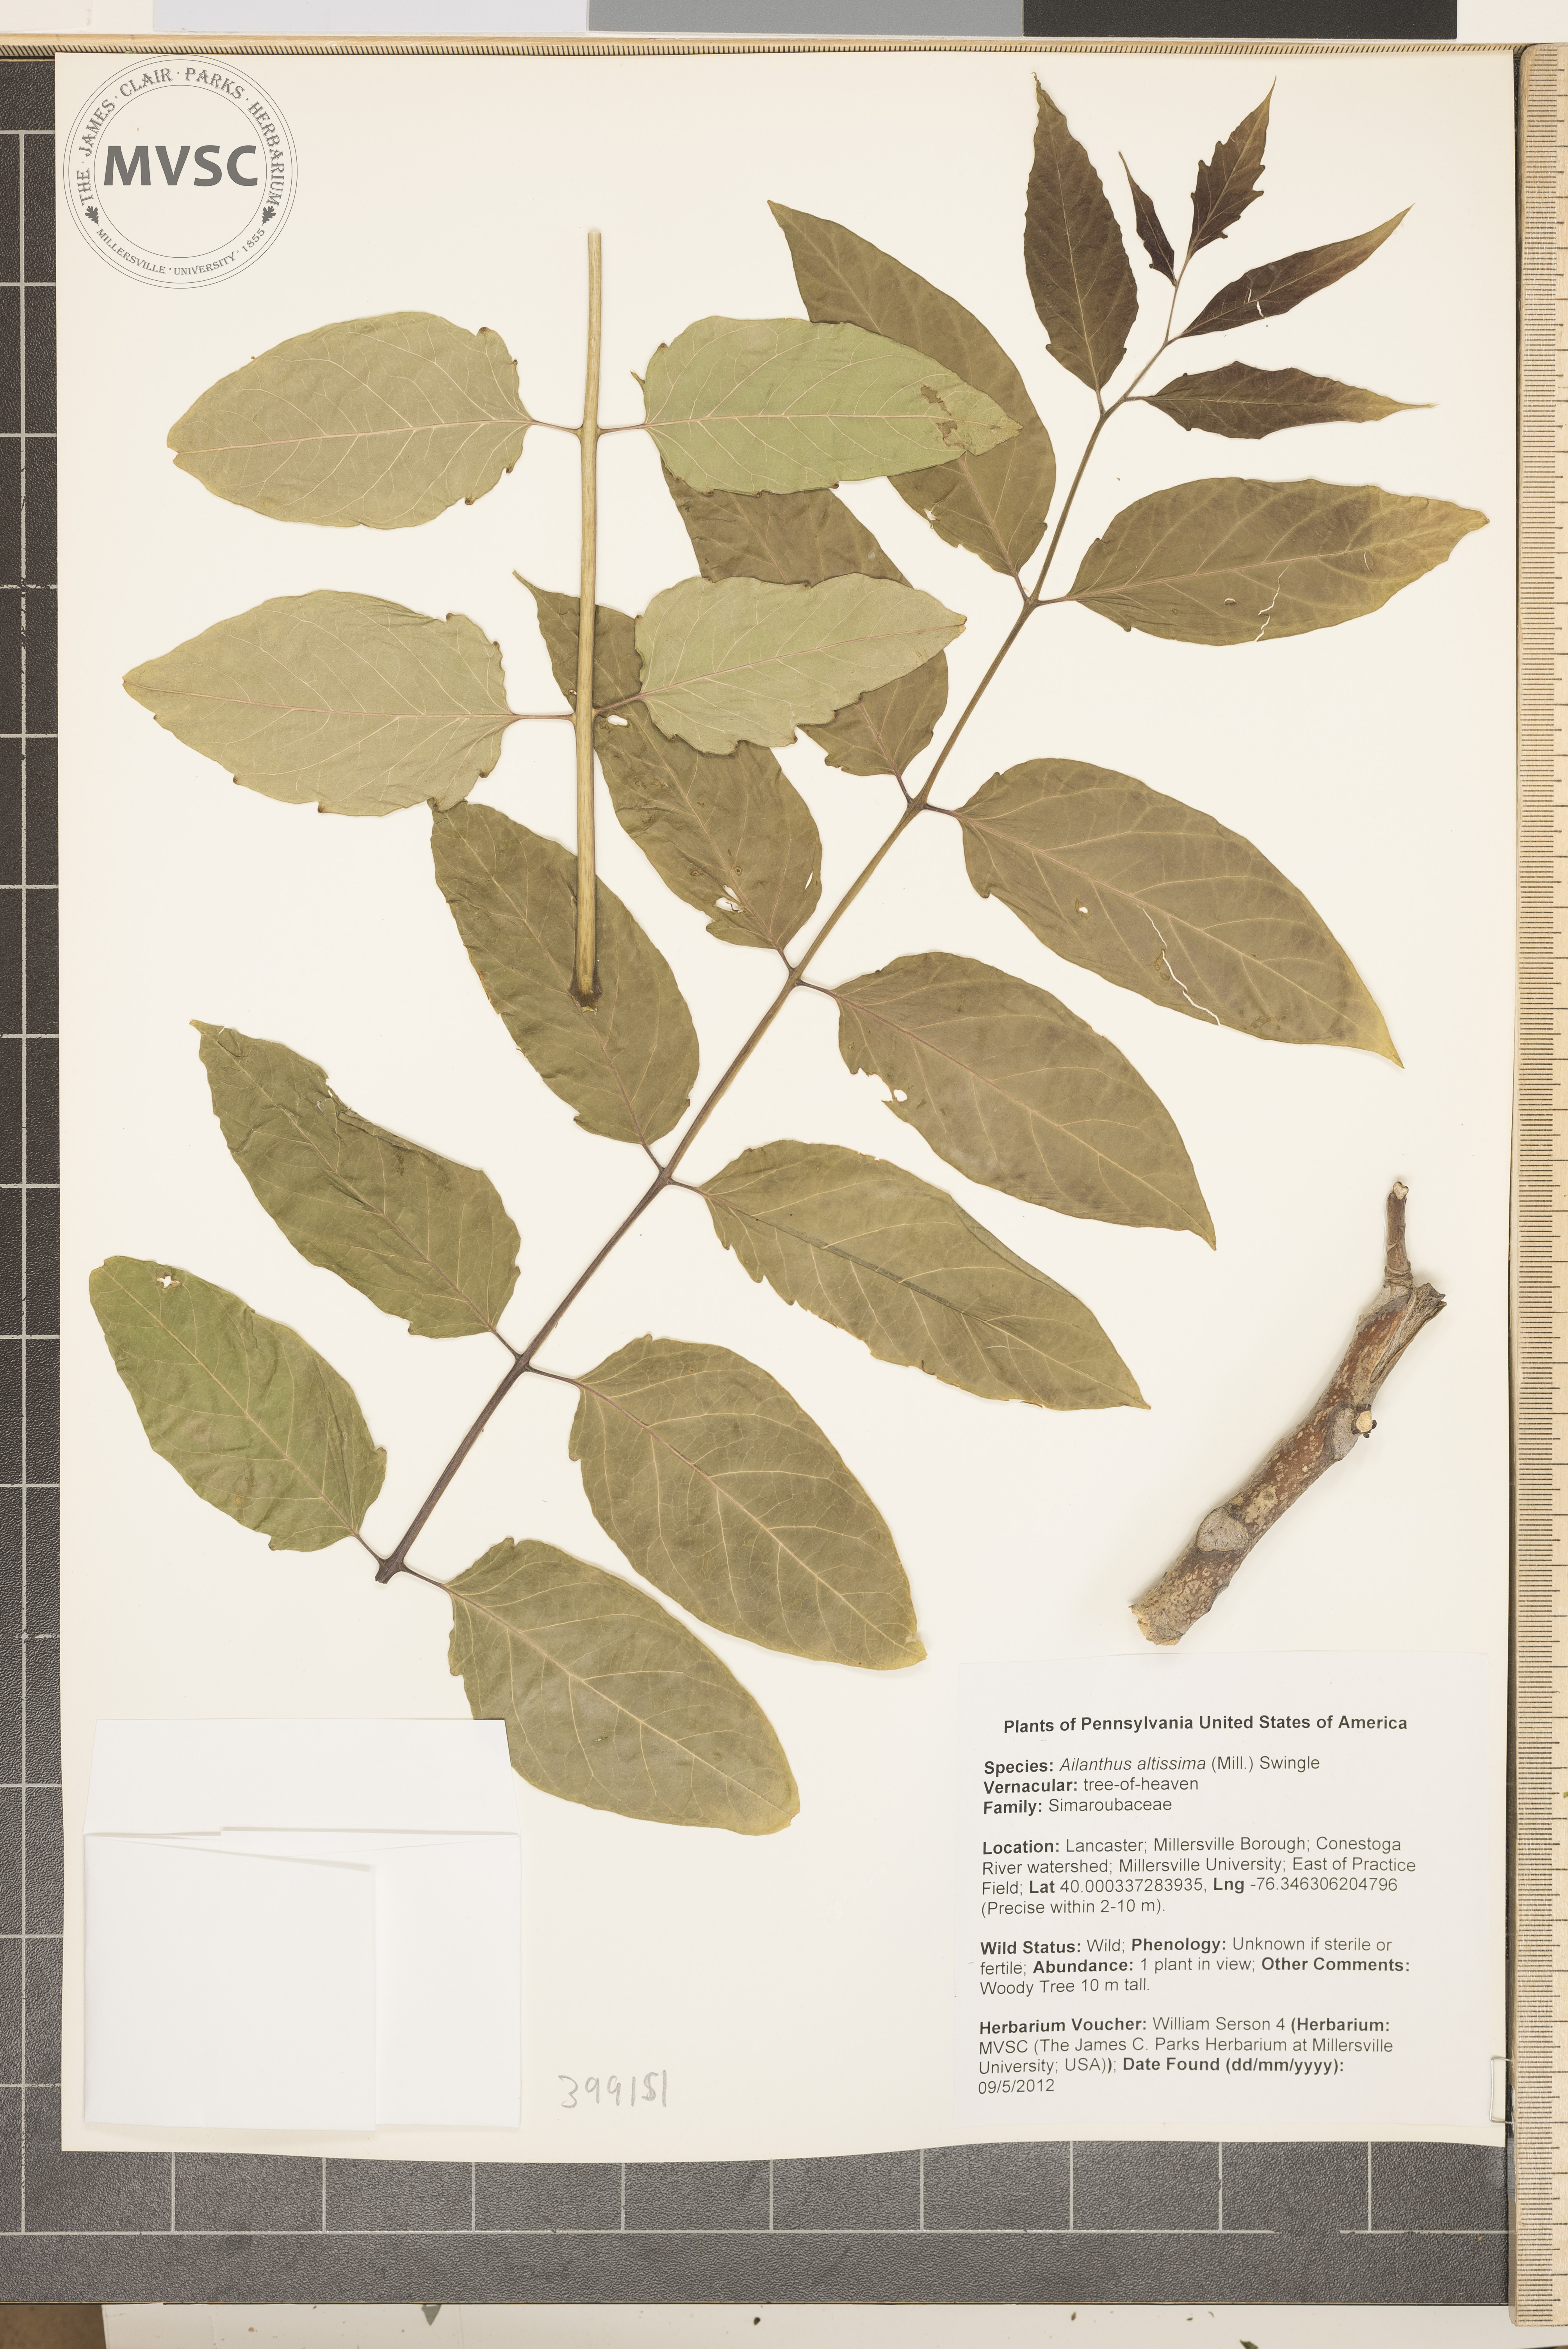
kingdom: Plantae
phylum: Tracheophyta
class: Magnoliopsida
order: Sapindales
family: Simaroubaceae
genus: Ailanthus
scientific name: Ailanthus altissima
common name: Tree-of-heaven
